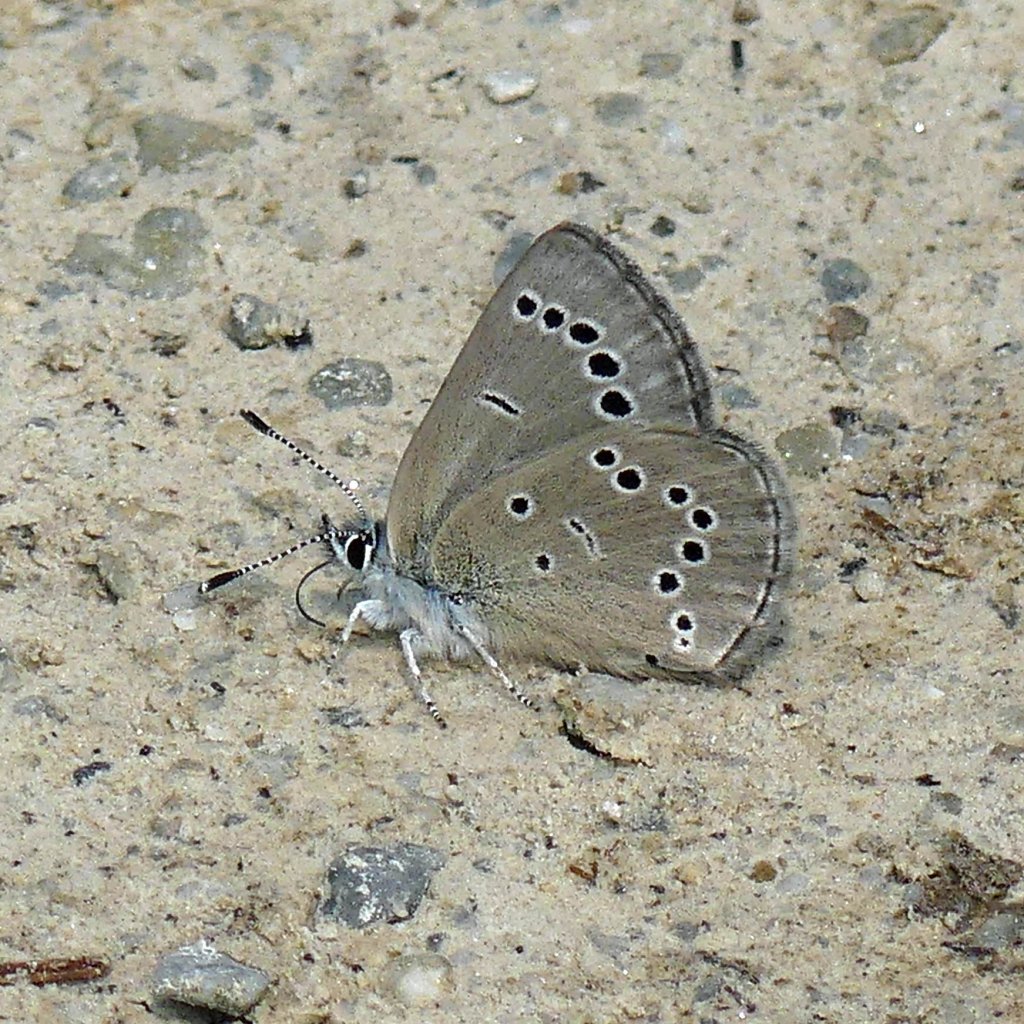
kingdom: Animalia
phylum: Arthropoda
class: Insecta
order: Lepidoptera
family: Lycaenidae
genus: Glaucopsyche
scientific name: Glaucopsyche lygdamus
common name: Silvery Blue
